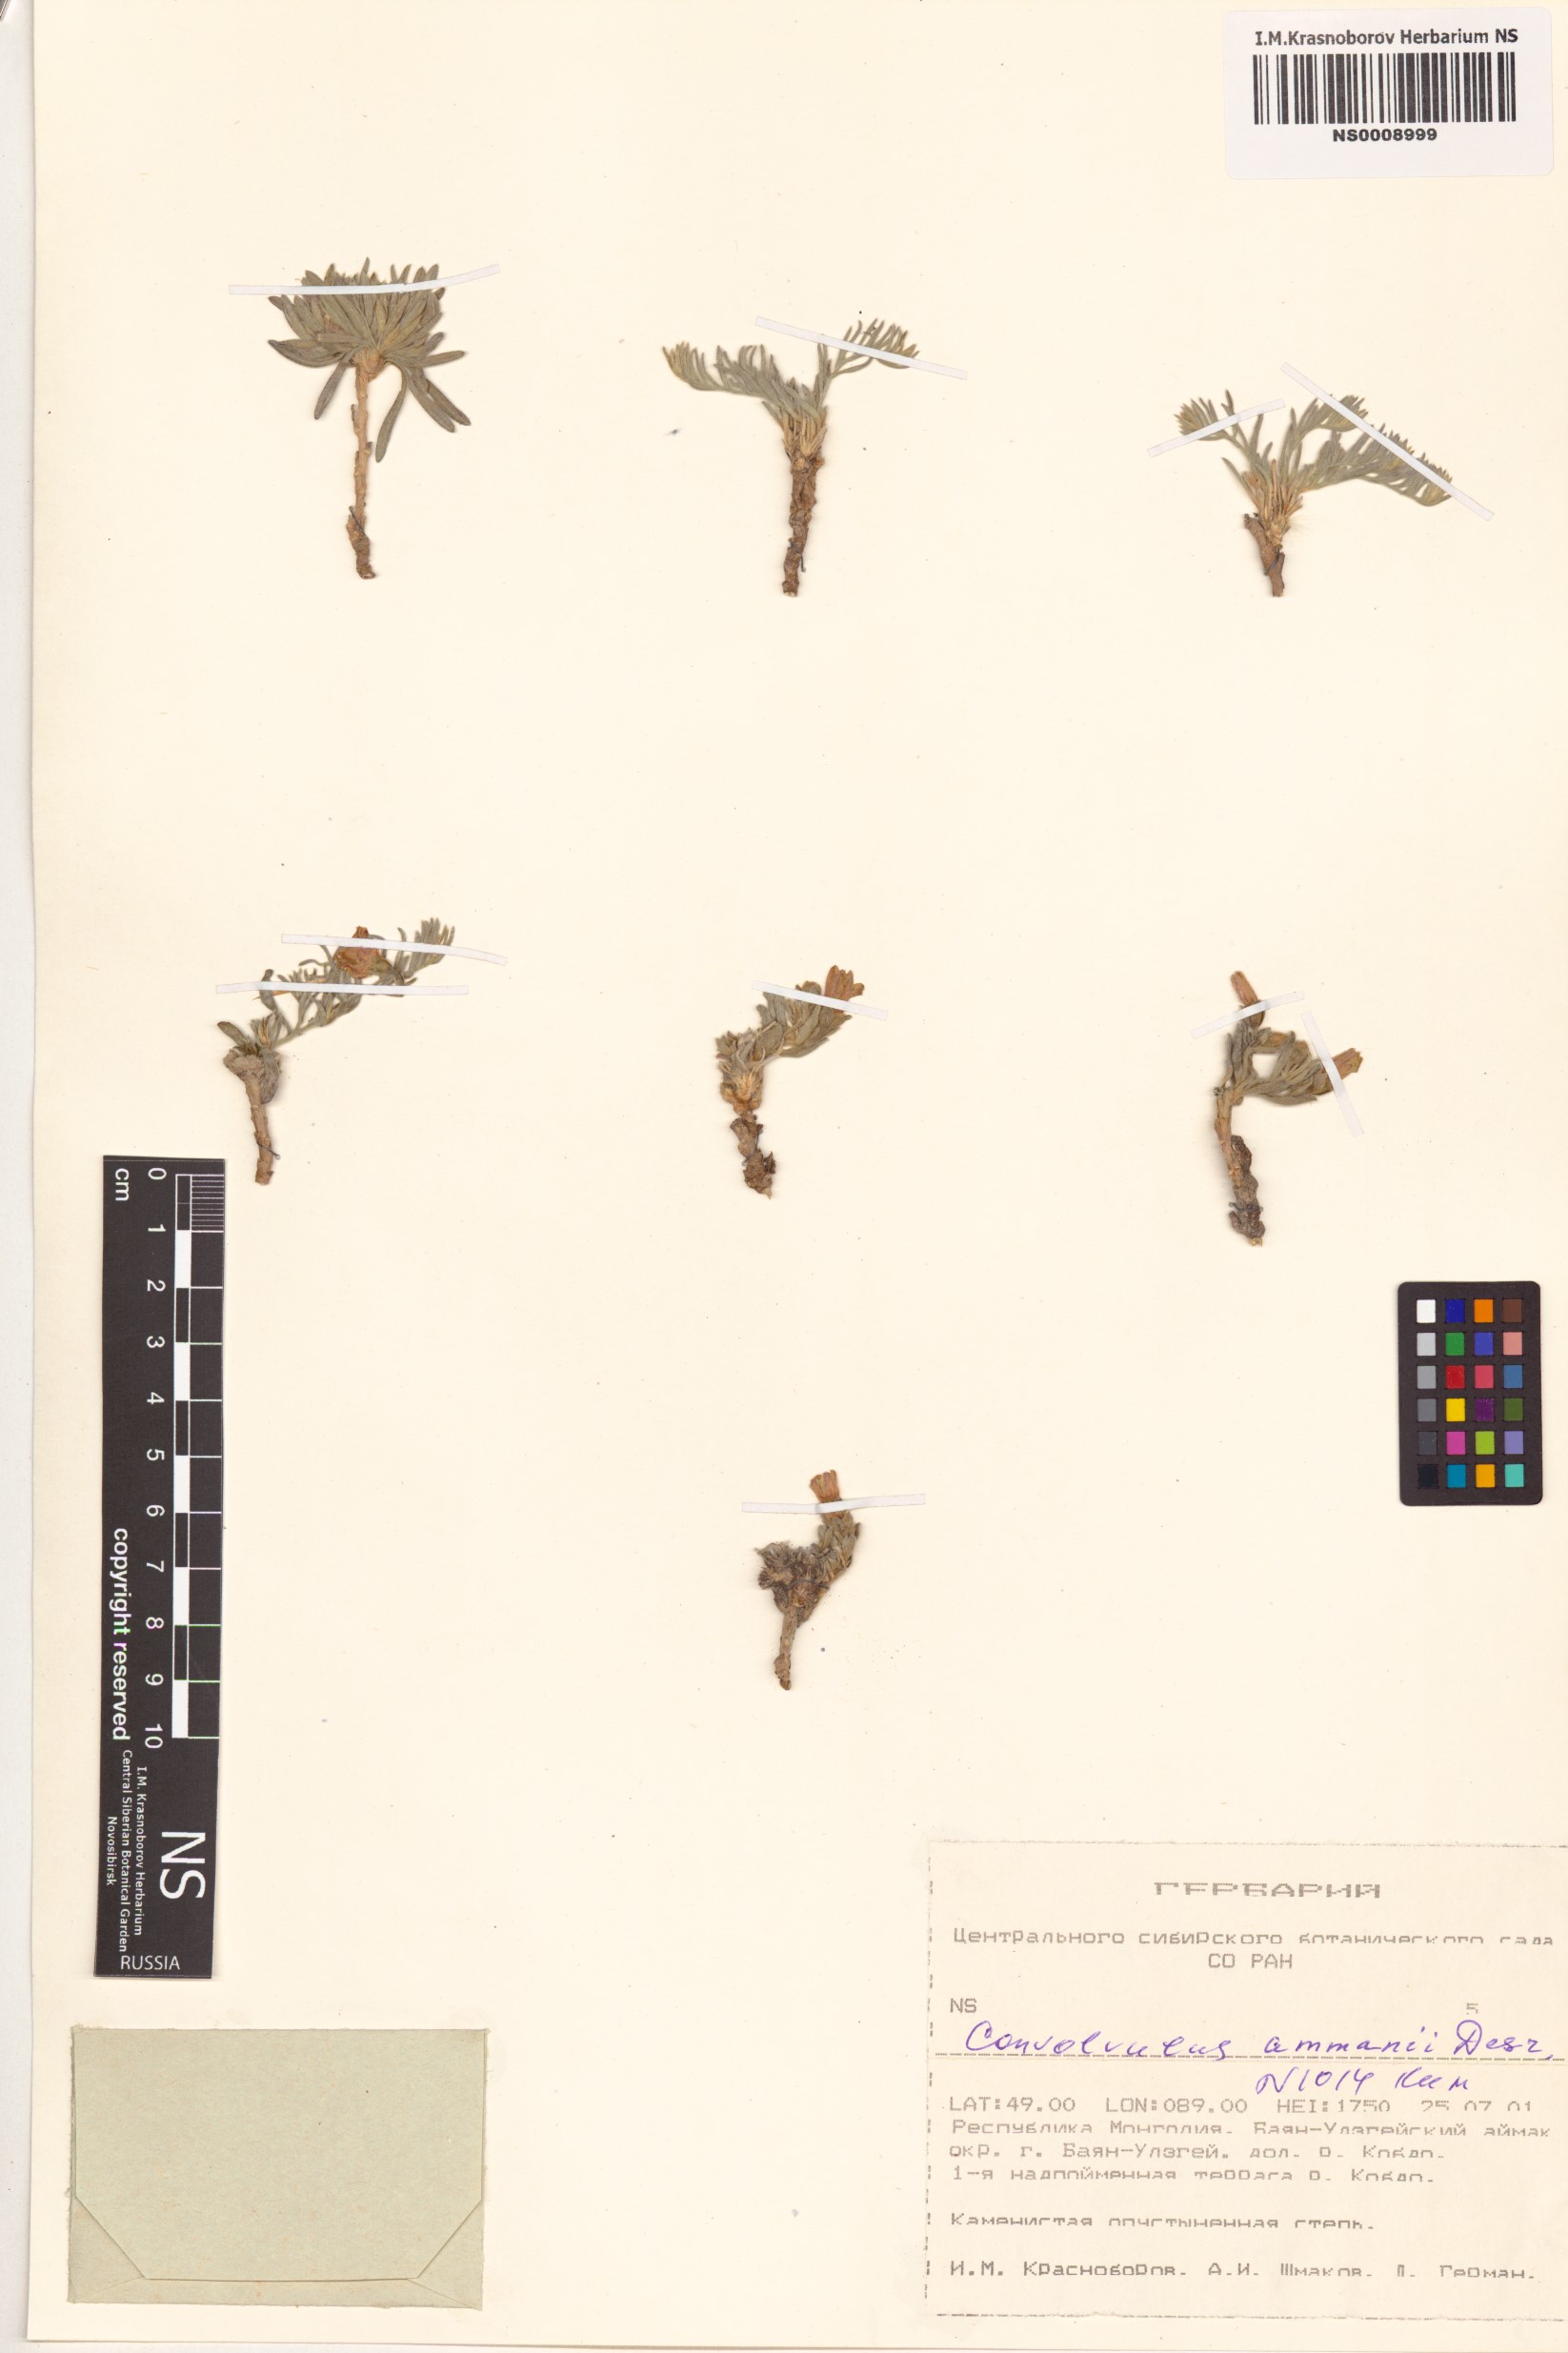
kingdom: Plantae
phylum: Tracheophyta
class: Magnoliopsida
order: Solanales
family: Convolvulaceae
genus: Convolvulus
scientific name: Convolvulus ammannii
